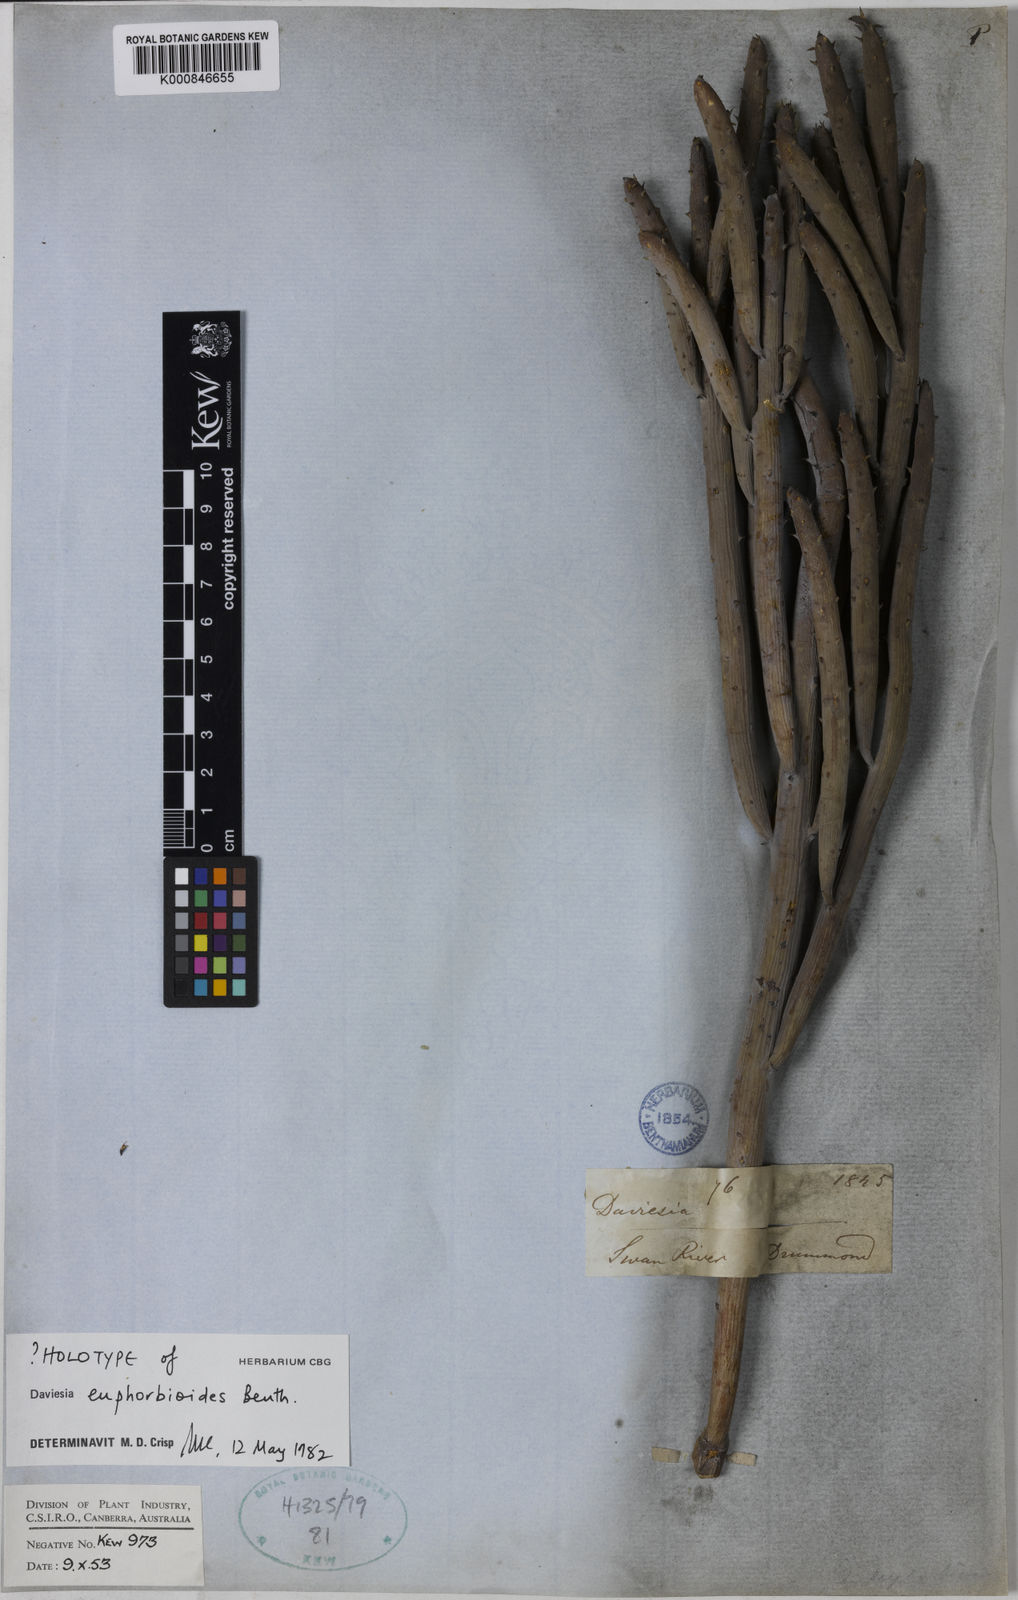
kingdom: Plantae
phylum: Tracheophyta
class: Magnoliopsida
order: Fabales
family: Fabaceae
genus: Daviesia
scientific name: Daviesia euphorbioides
